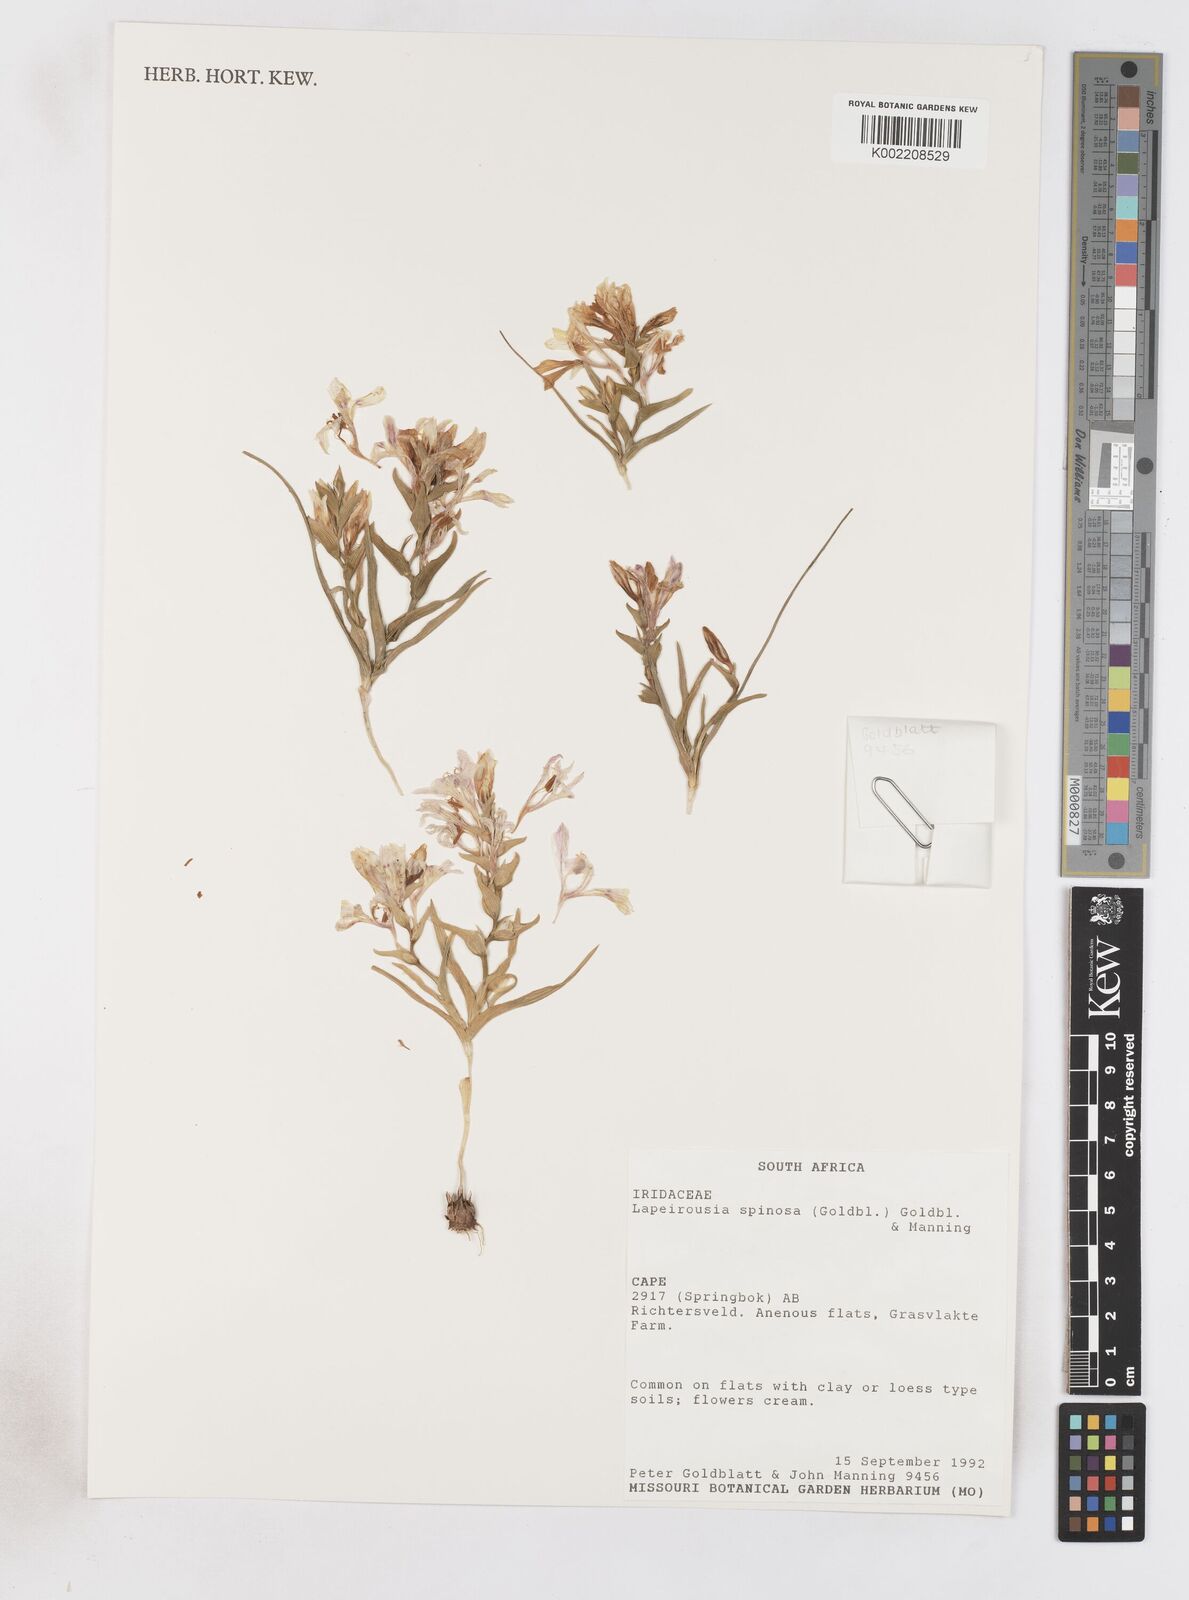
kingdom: Plantae
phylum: Tracheophyta
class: Liliopsida
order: Asparagales
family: Iridaceae
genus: Lapeirousia
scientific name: Lapeirousia spinosa
